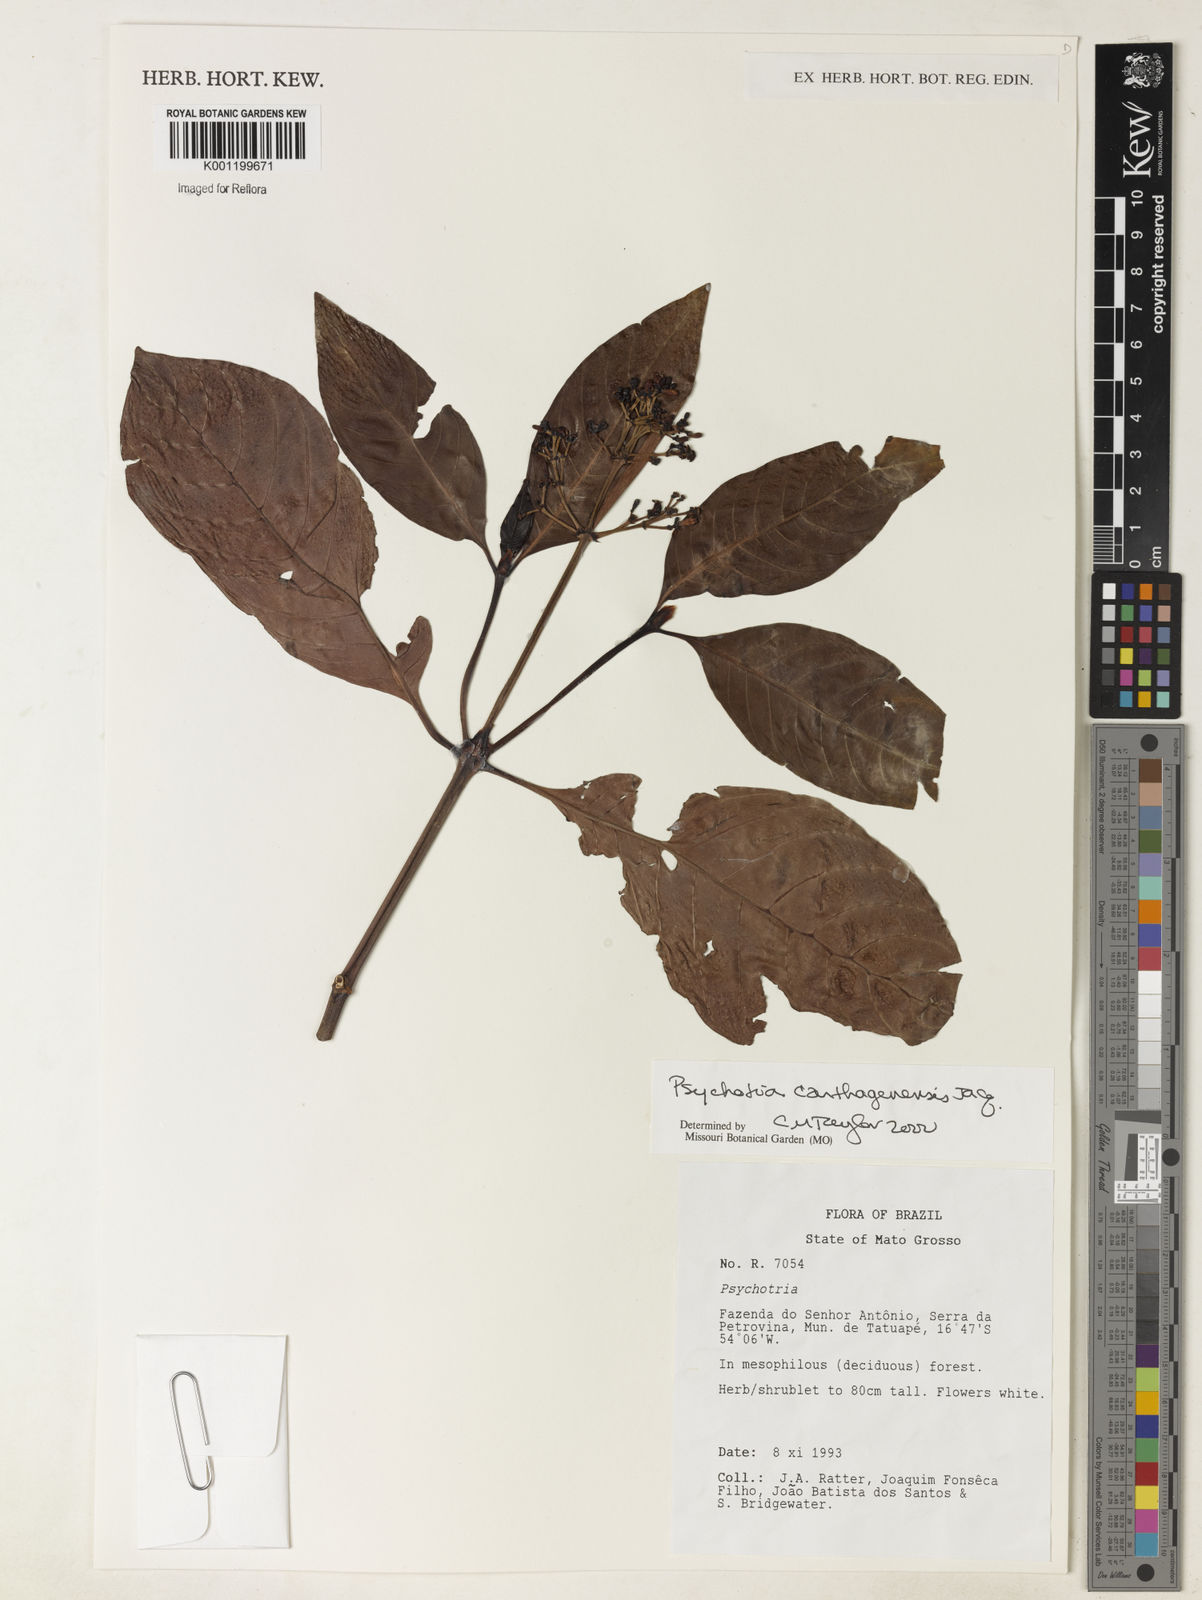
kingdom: Plantae
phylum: Tracheophyta
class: Magnoliopsida
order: Gentianales
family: Rubiaceae
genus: Psychotria
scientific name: Psychotria carthagenensis
